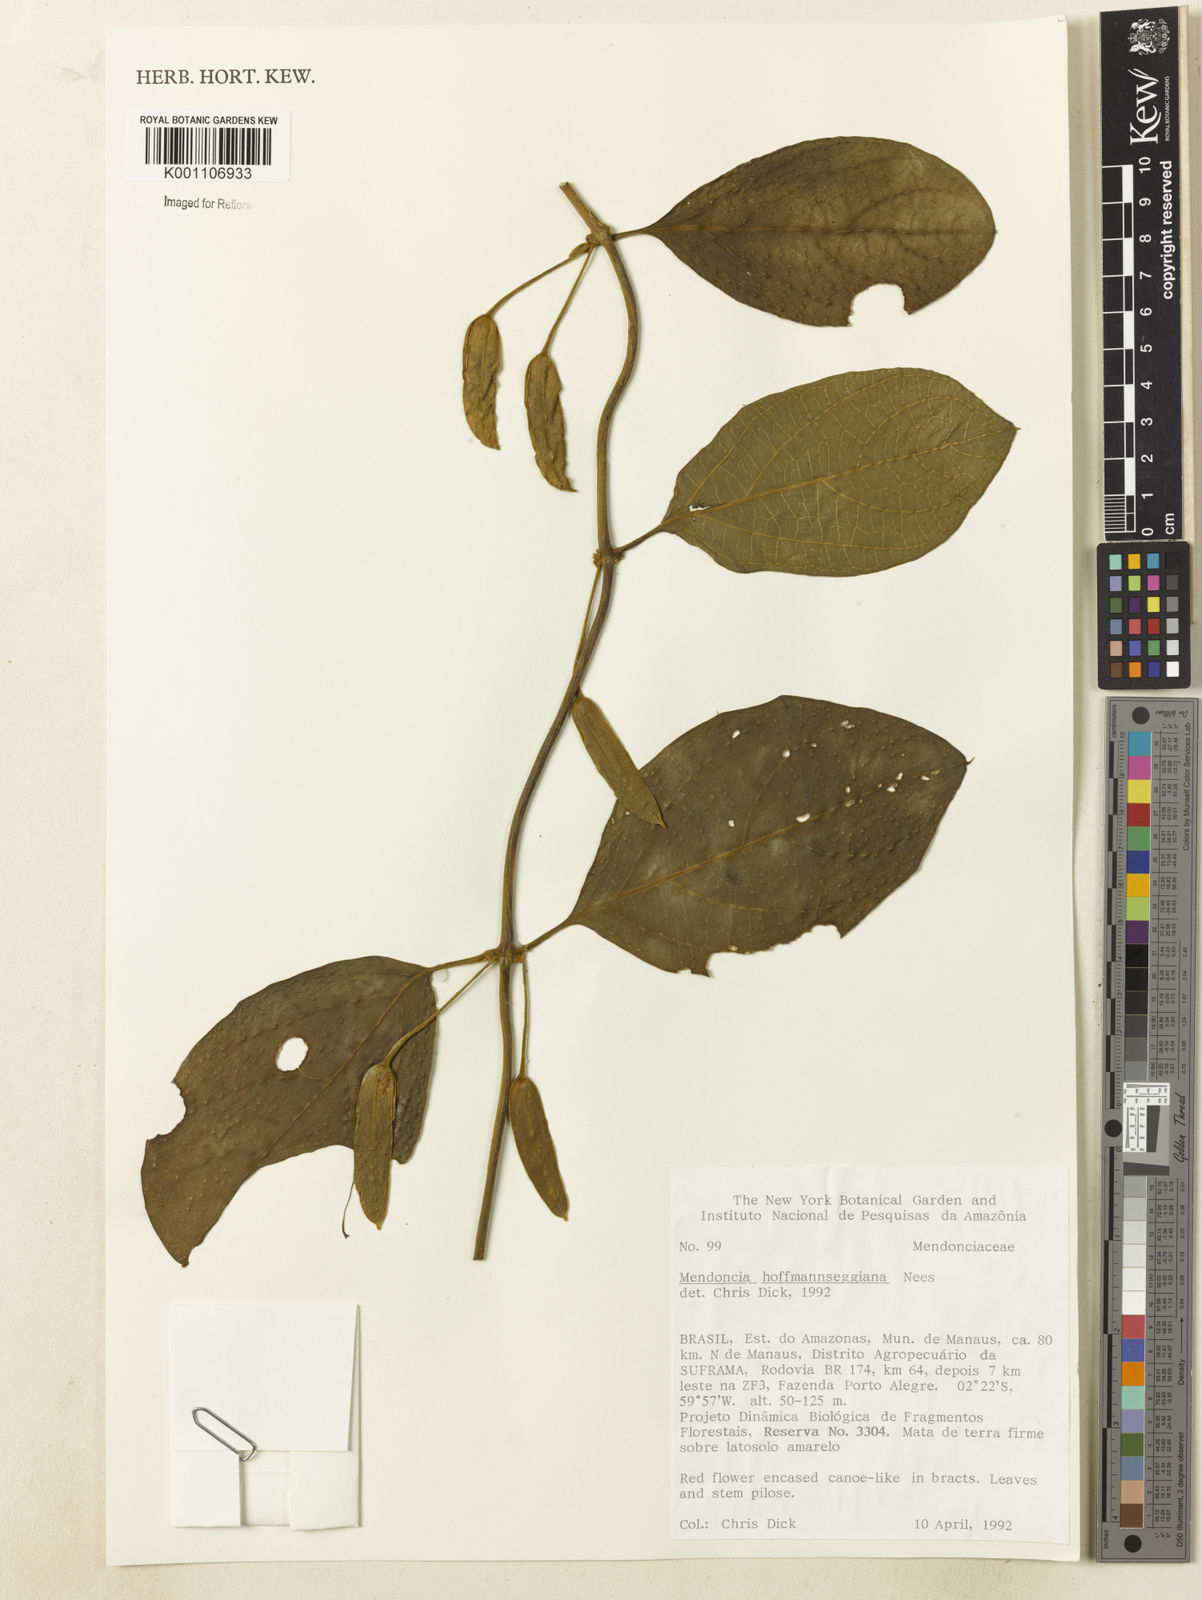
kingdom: Plantae
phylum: Tracheophyta
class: Magnoliopsida
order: Lamiales
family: Acanthaceae
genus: Mendoncia
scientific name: Mendoncia hoffmannseggiana
